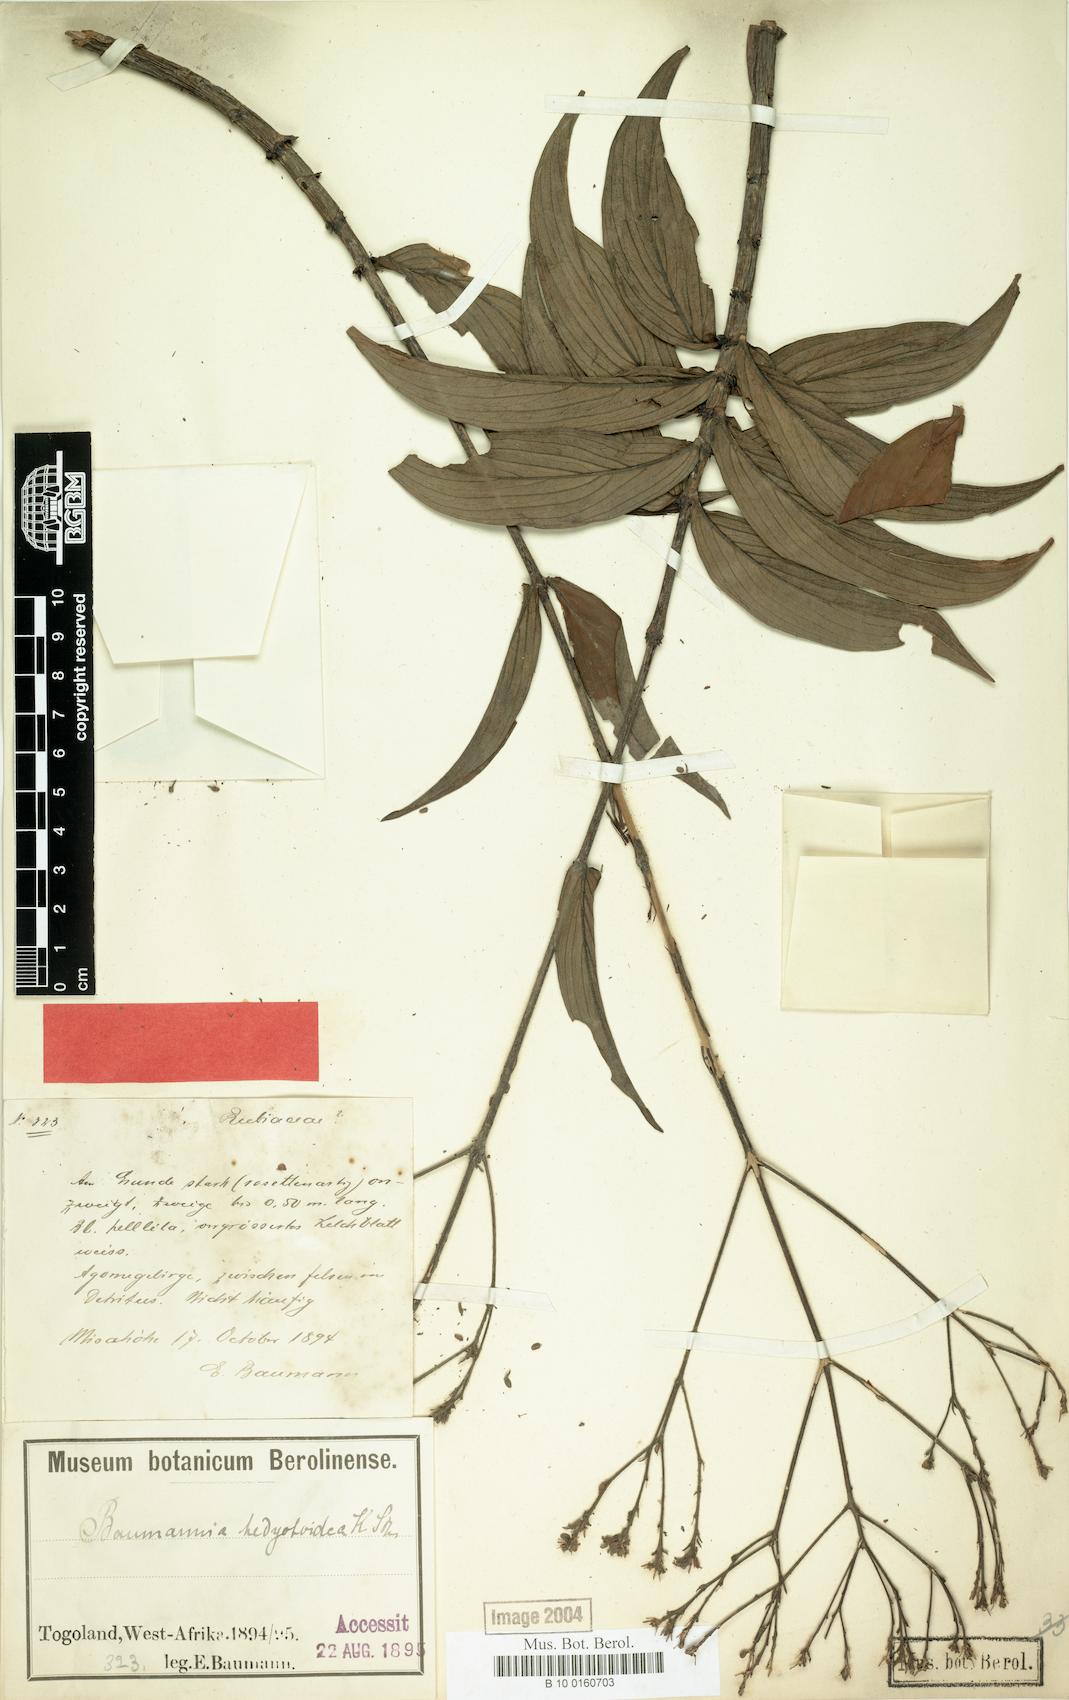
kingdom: Plantae
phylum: Tracheophyta
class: Magnoliopsida
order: Gentianales
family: Rubiaceae
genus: Knoxia
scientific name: Knoxia hedyotoidea
